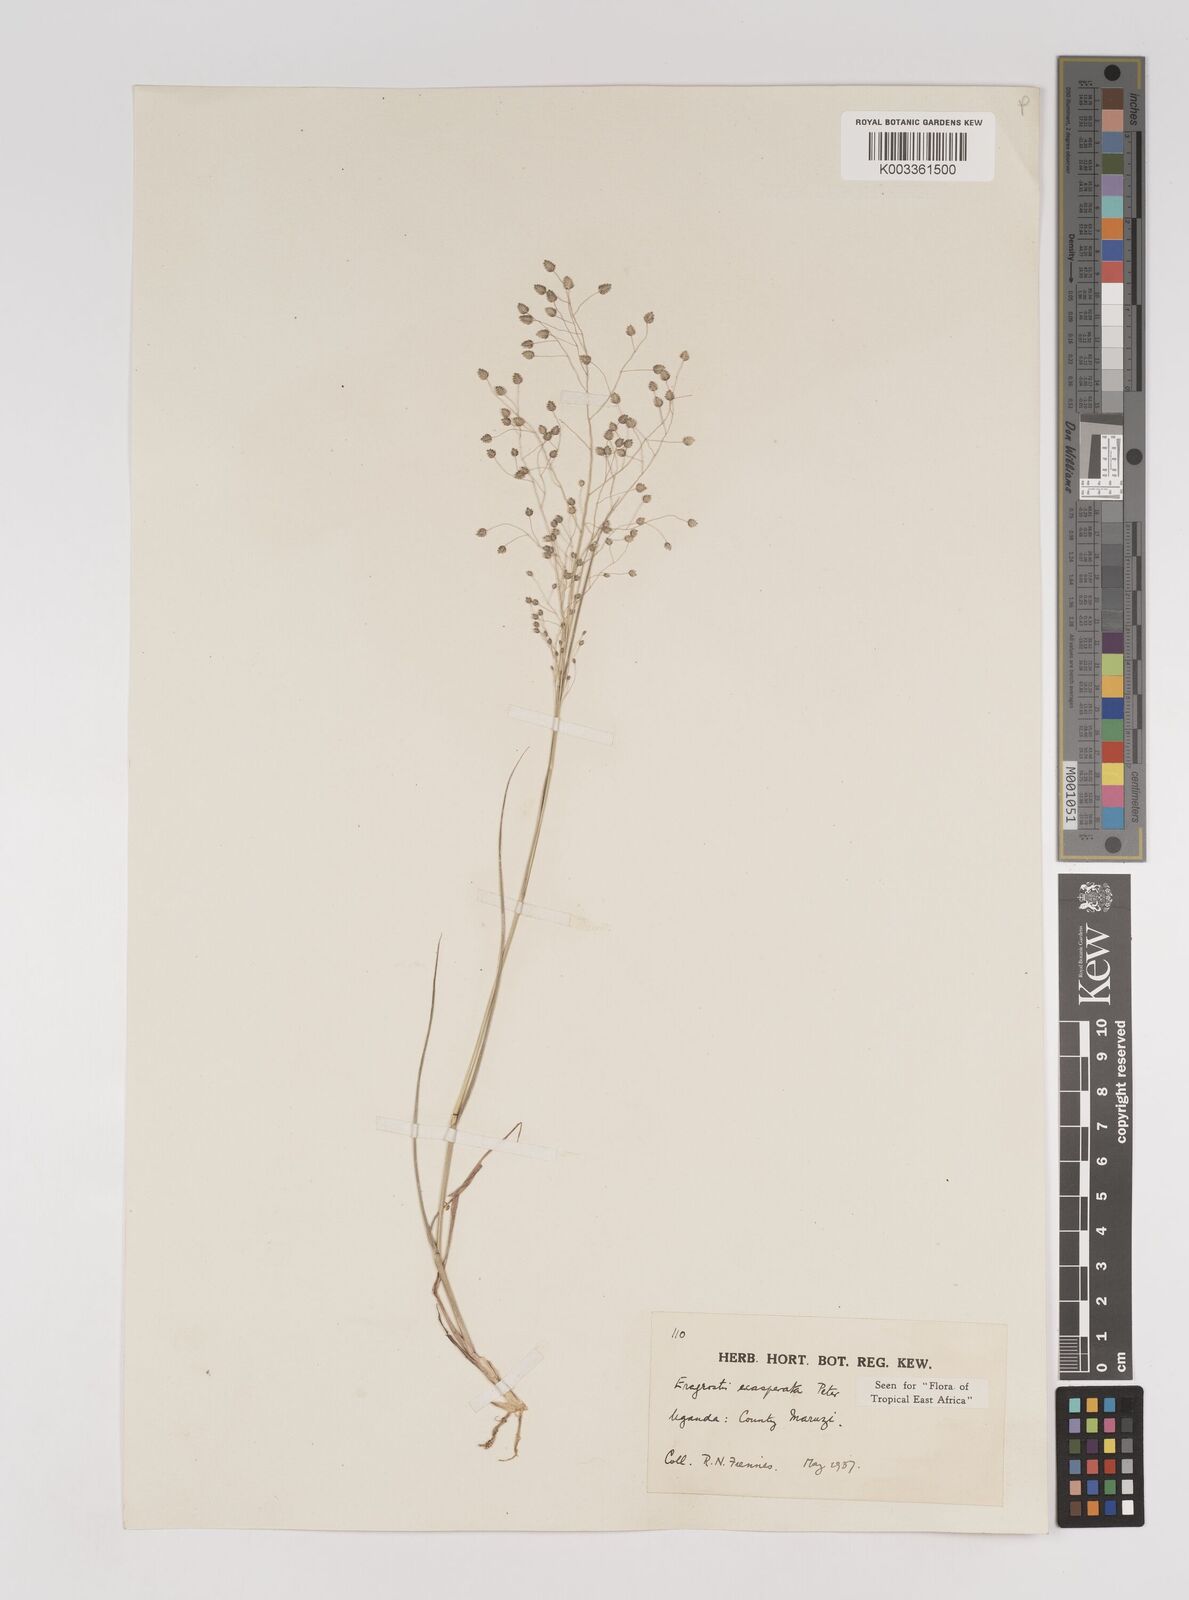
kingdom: Plantae
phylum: Tracheophyta
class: Liliopsida
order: Poales
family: Poaceae
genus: Eragrostis
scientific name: Eragrostis exasperata
